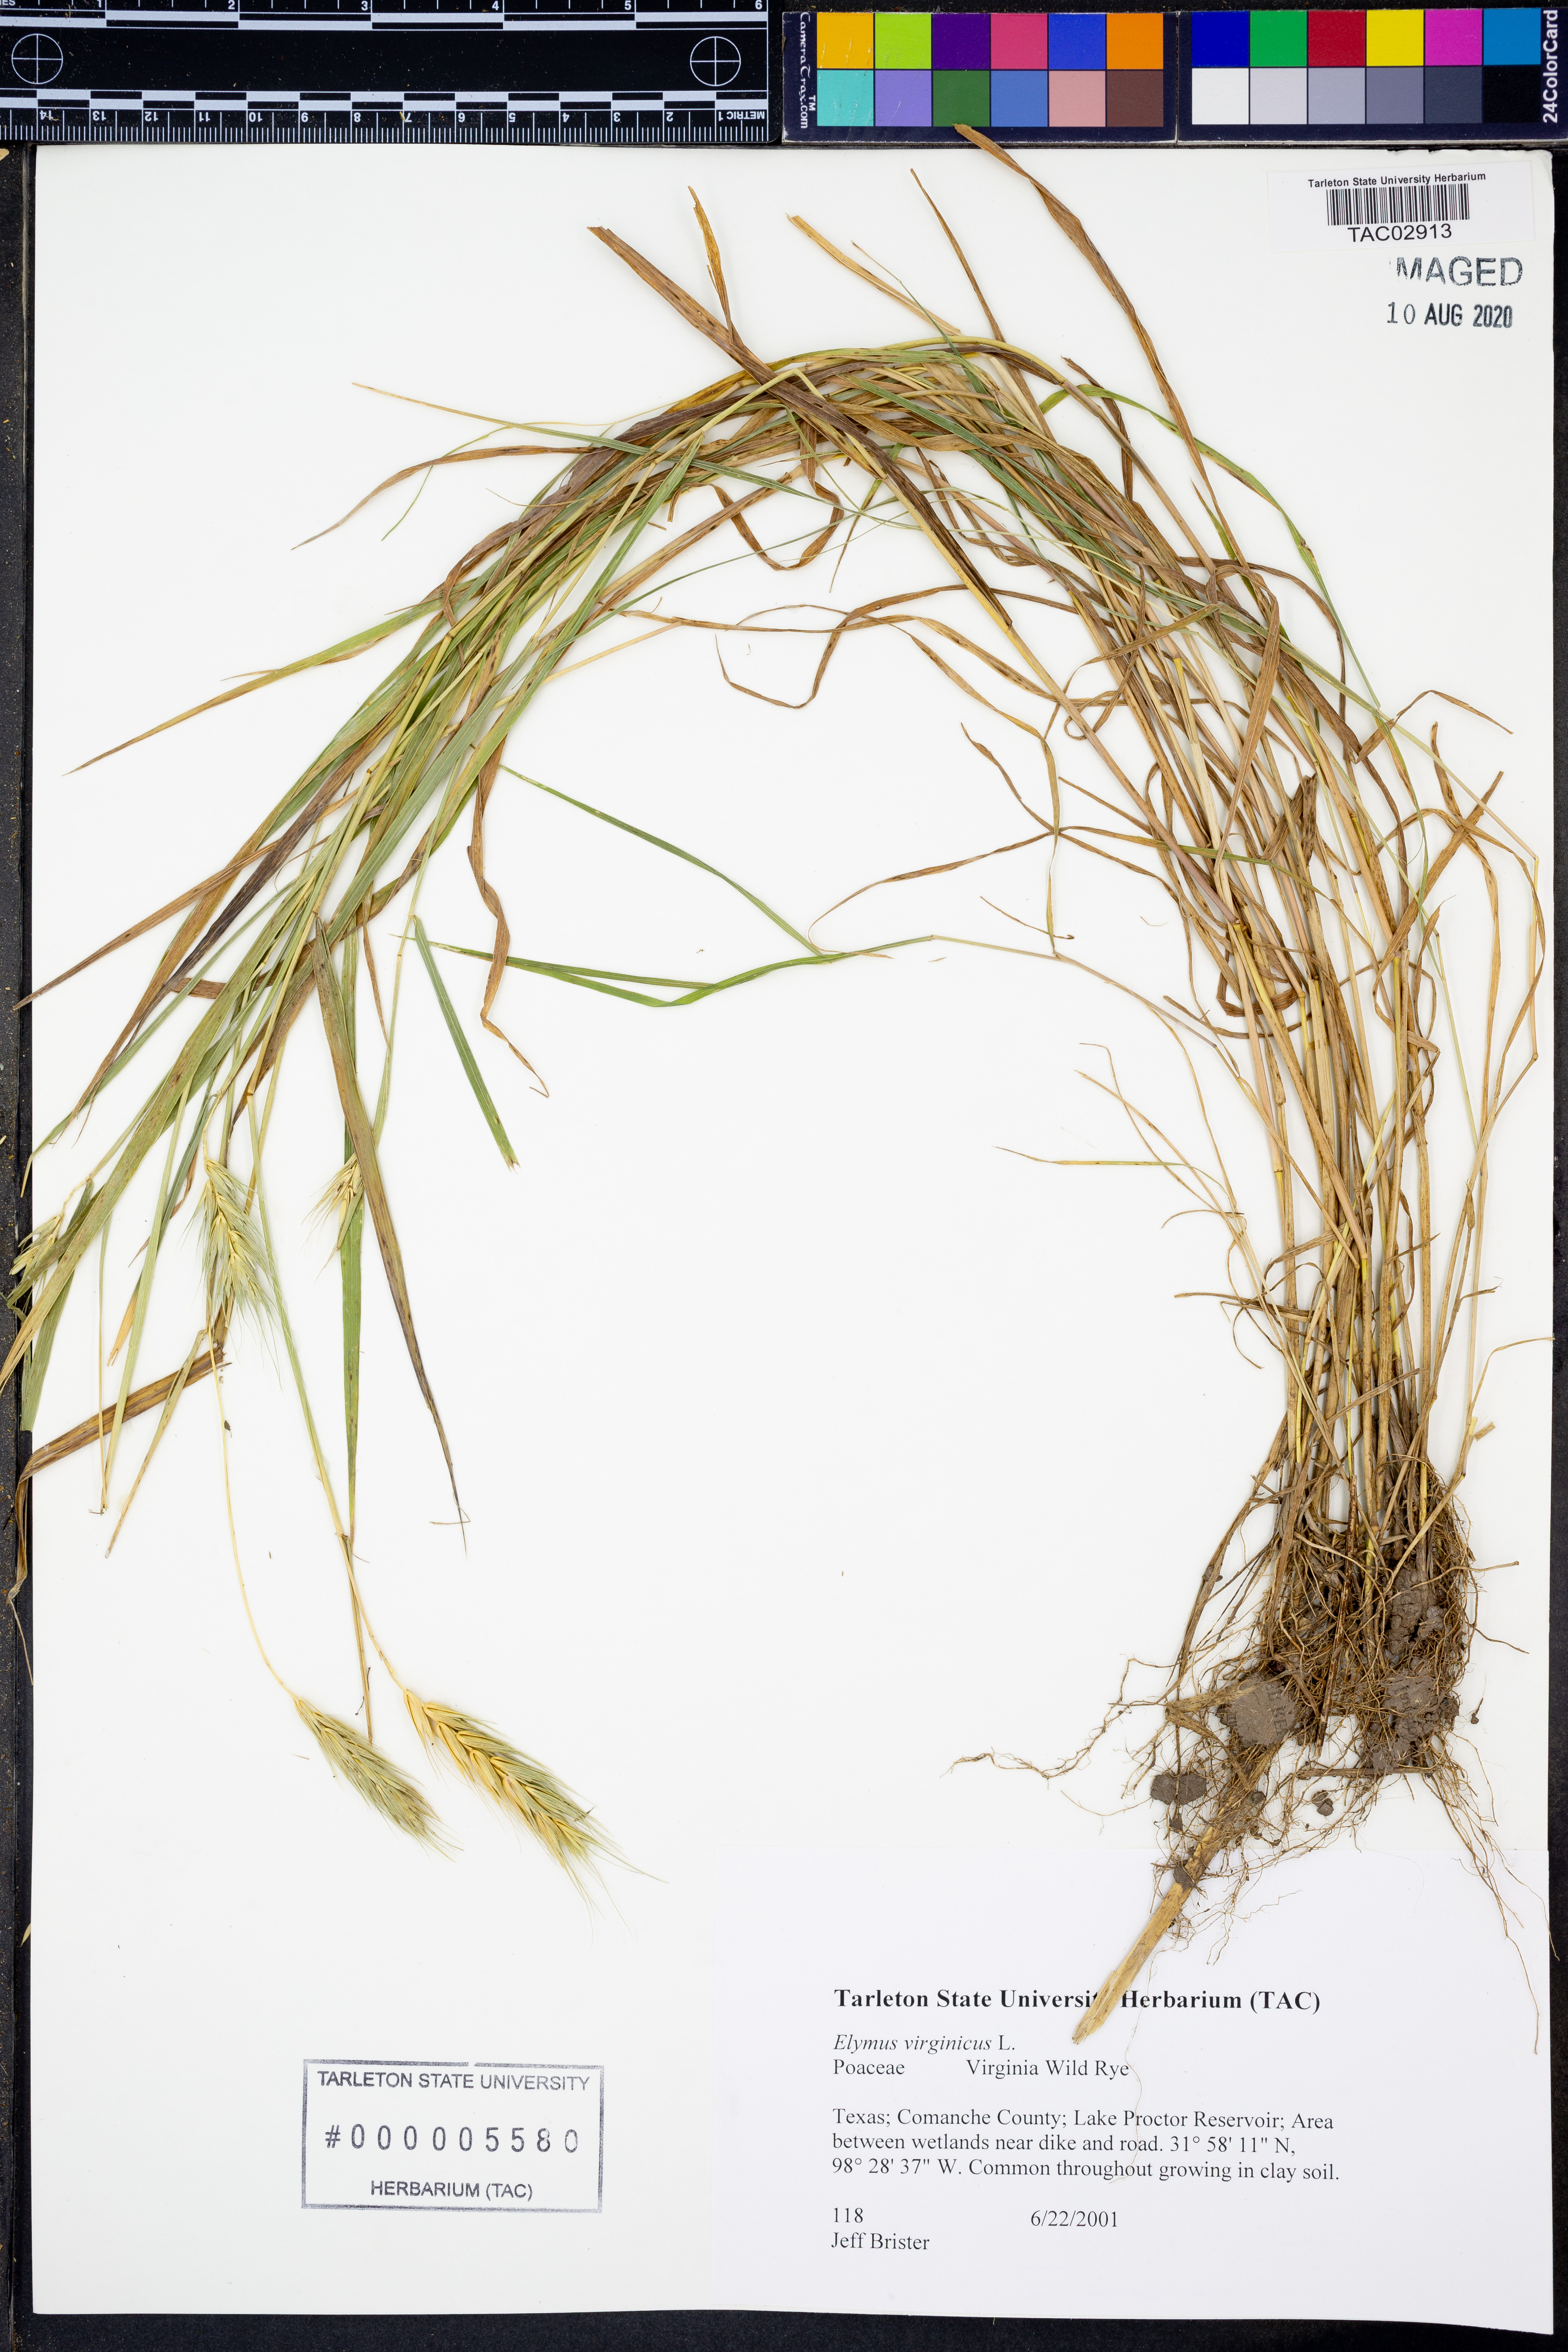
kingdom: Plantae
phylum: Tracheophyta
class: Liliopsida
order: Poales
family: Poaceae
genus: Elymus
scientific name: Elymus virginicus
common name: Common eastern wildrye
